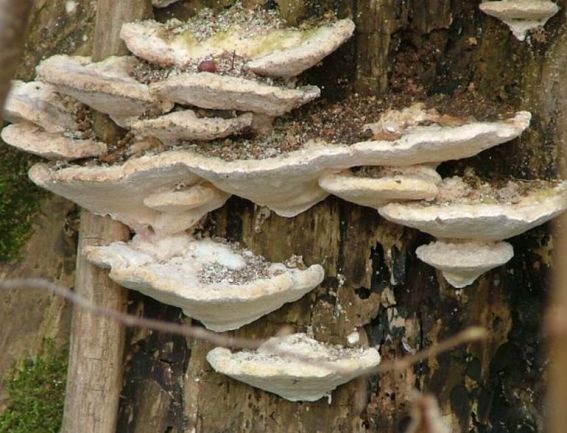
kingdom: Fungi
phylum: Basidiomycota
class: Agaricomycetes
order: Polyporales
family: Polyporaceae
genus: Trametes
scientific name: Trametes gibbosa
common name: puklet læderporesvamp
